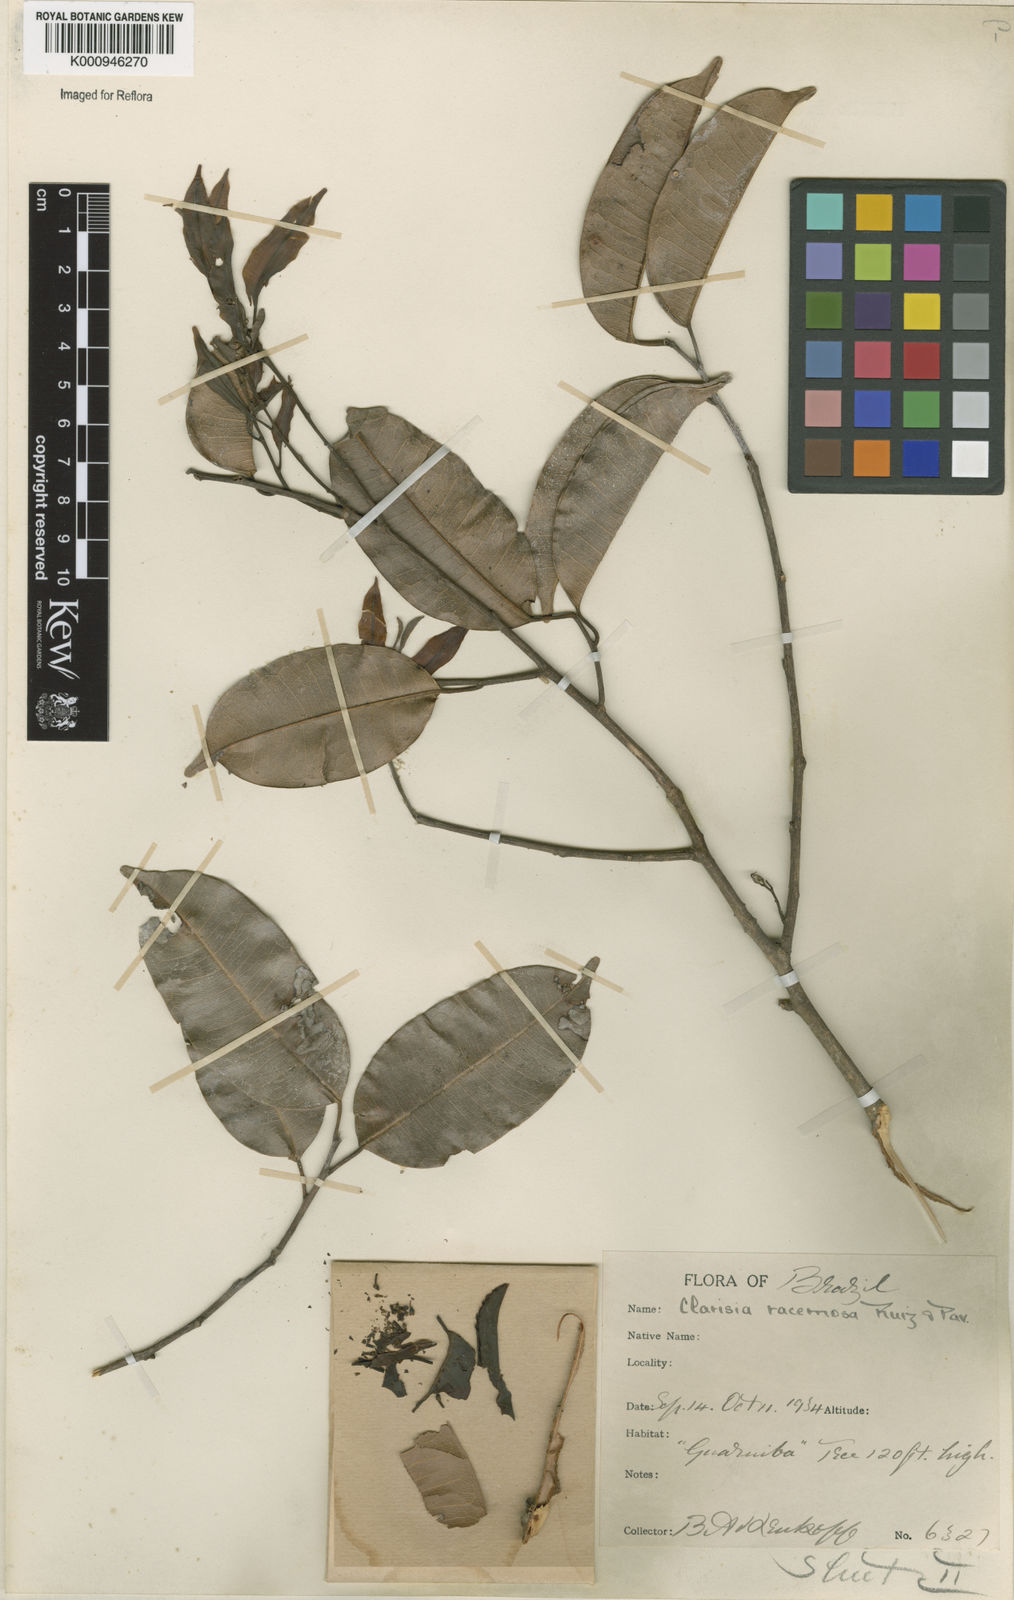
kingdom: Plantae
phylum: Tracheophyta
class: Magnoliopsida
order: Rosales
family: Moraceae
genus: Clarisia
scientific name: Clarisia racemosa
